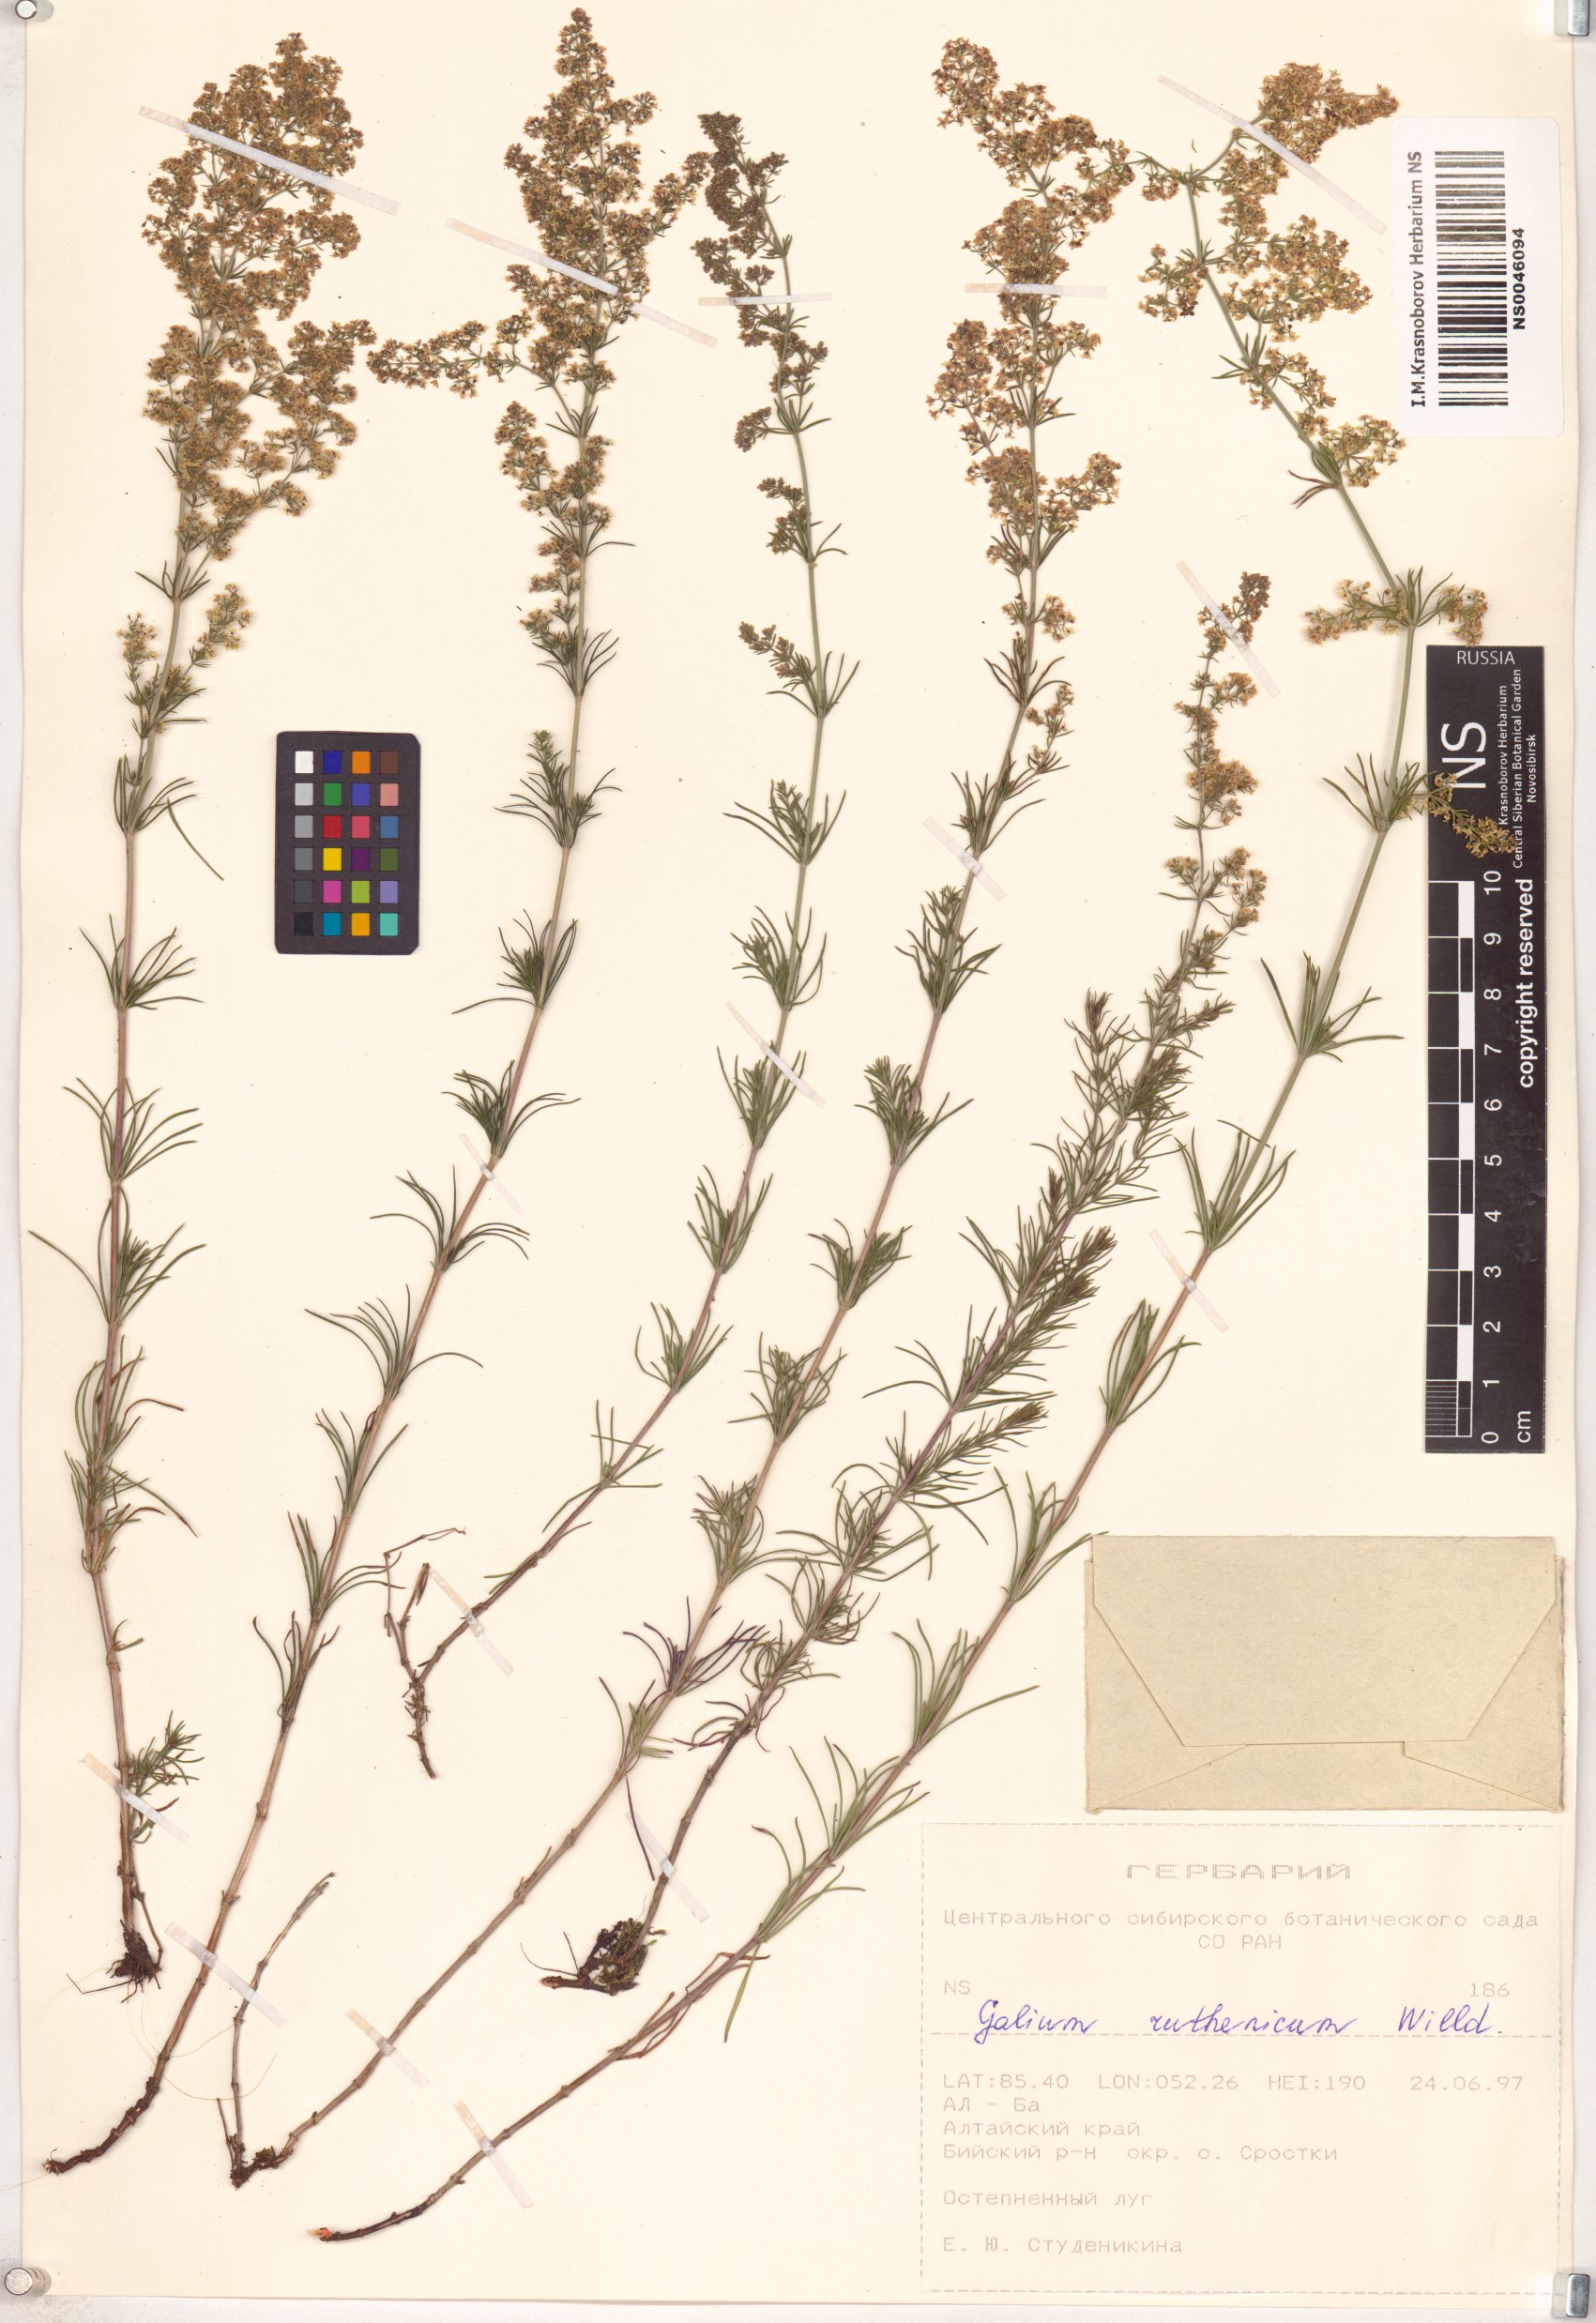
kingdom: Plantae
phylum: Tracheophyta
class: Magnoliopsida
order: Gentianales
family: Rubiaceae
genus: Galium
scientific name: Galium verum
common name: Lady's bedstraw
